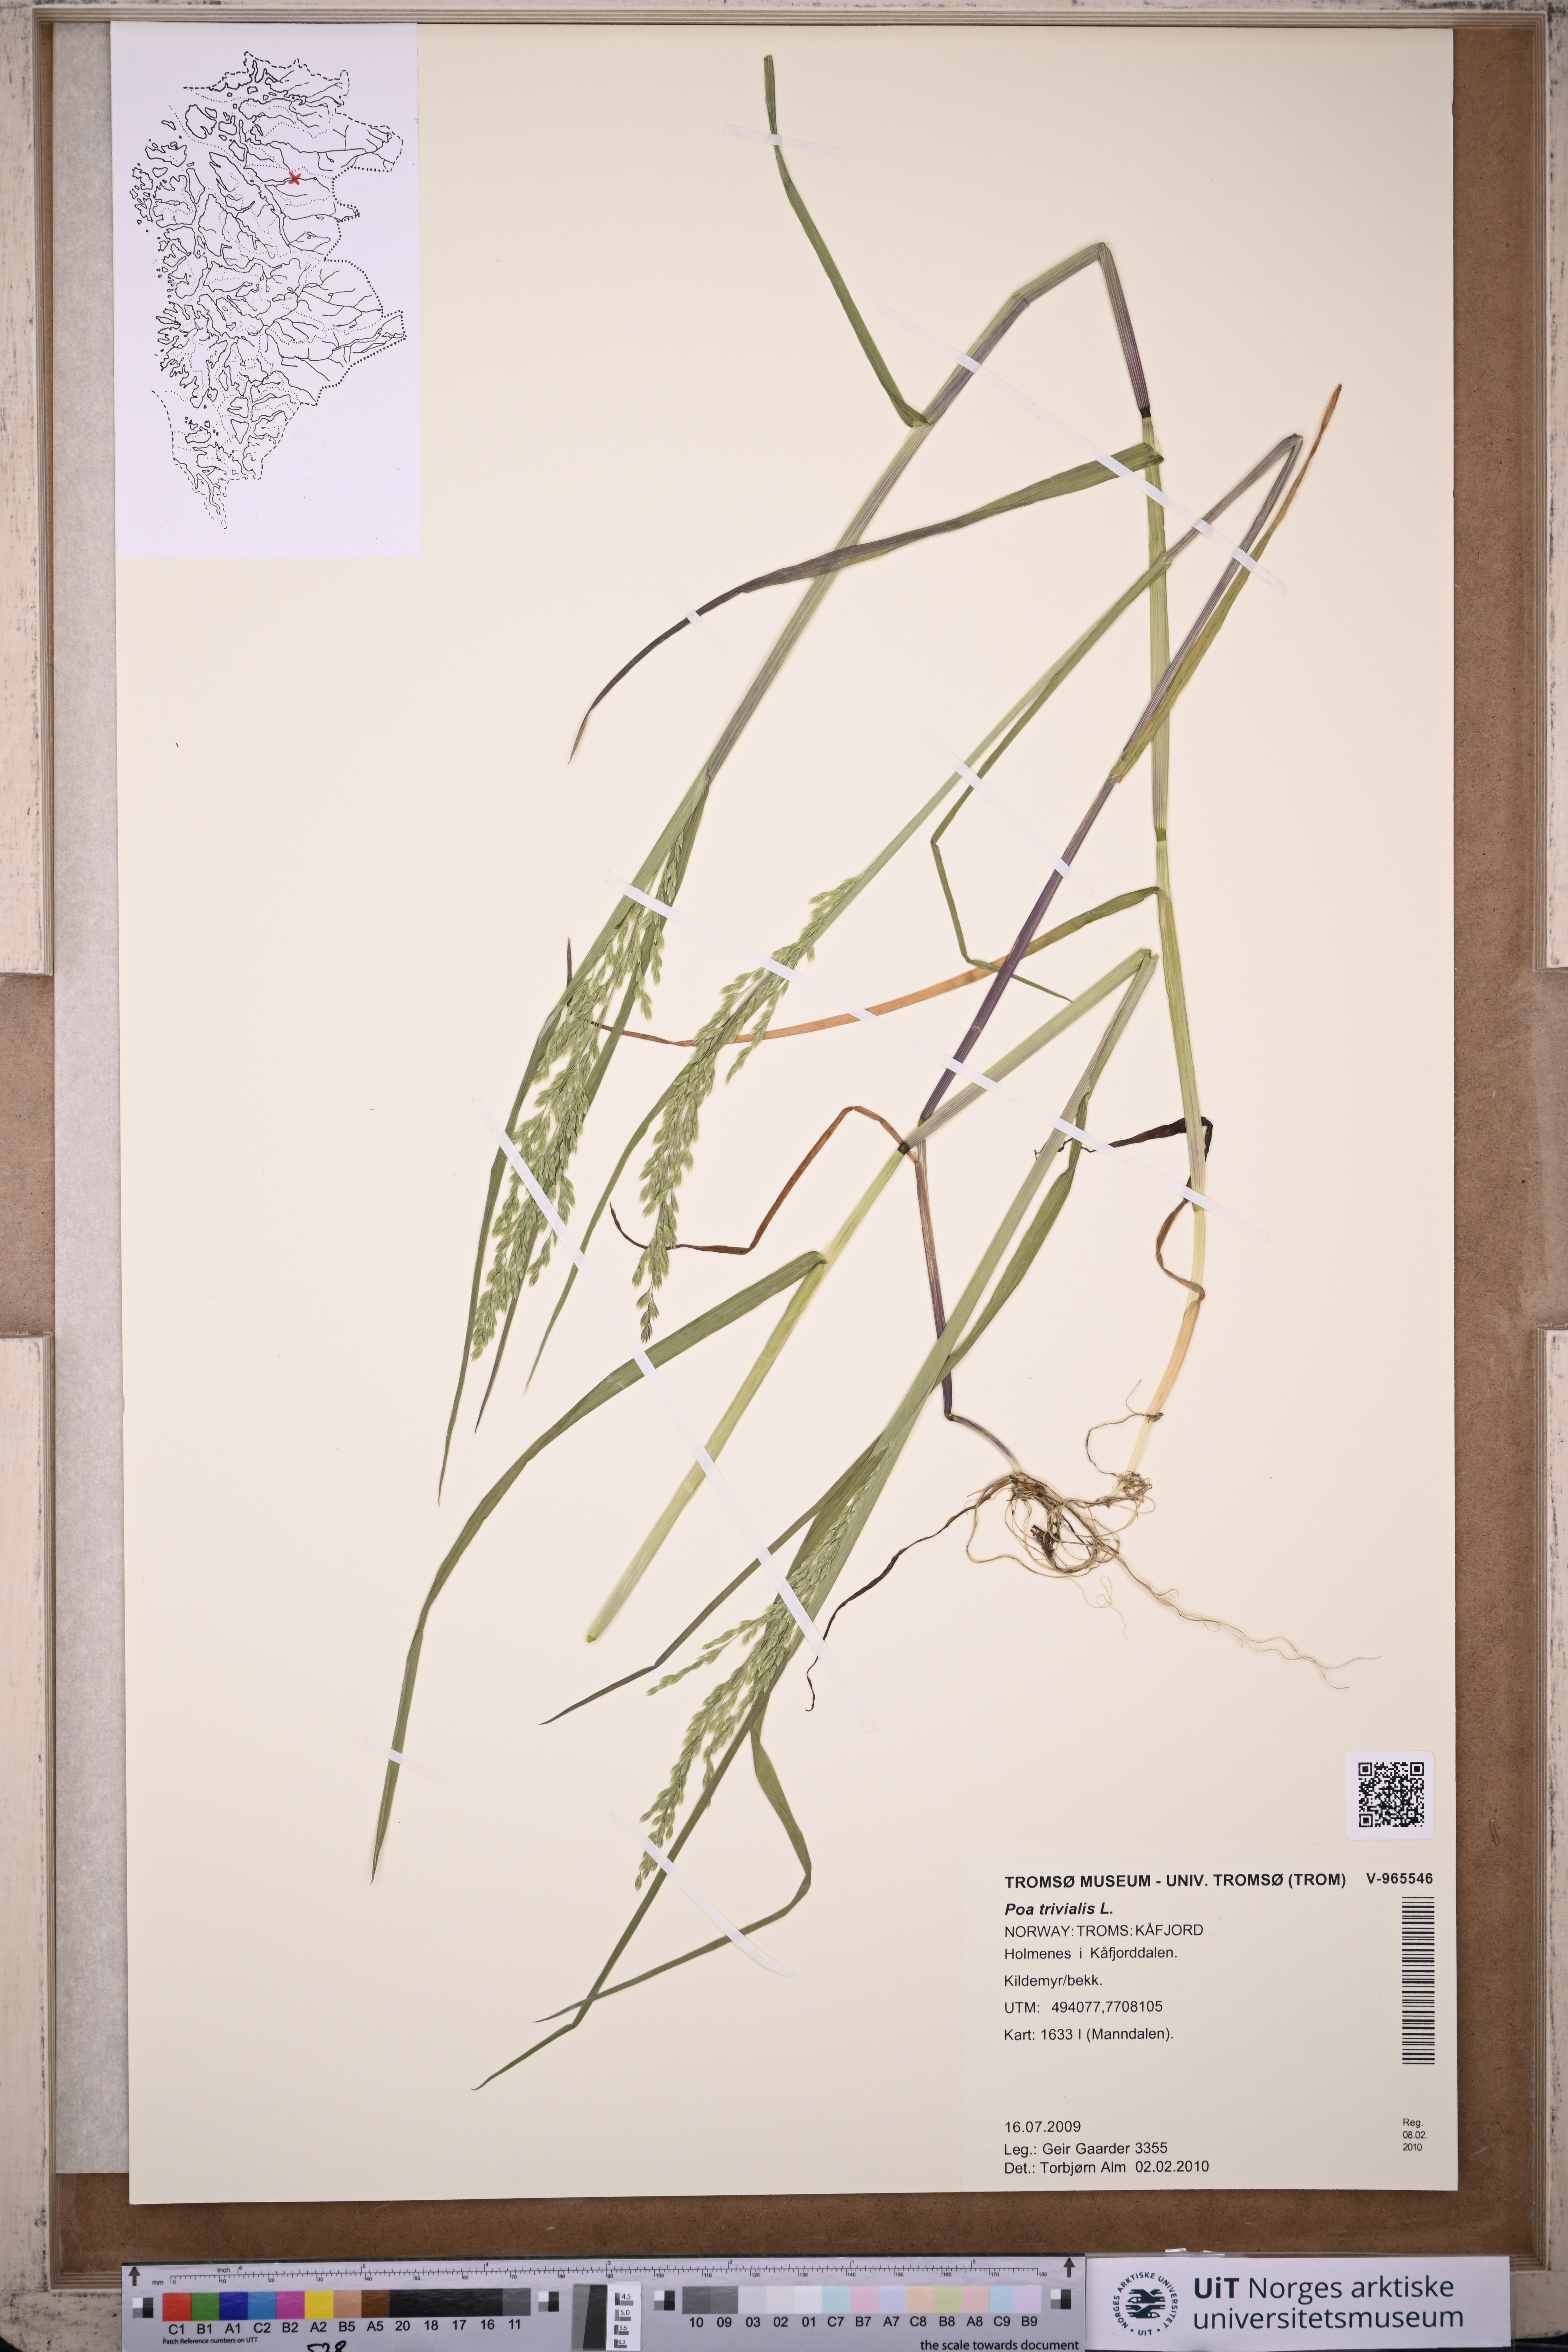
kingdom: Plantae
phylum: Tracheophyta
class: Liliopsida
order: Poales
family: Poaceae
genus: Poa
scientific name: Poa trivialis
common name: Rough bluegrass
